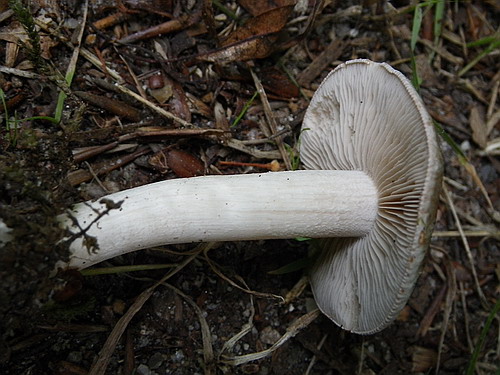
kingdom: Fungi
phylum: Basidiomycota
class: Agaricomycetes
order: Agaricales
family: Hymenogastraceae
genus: Hebeloma
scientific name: Hebeloma theobrominum
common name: rødbrun tåreblad
